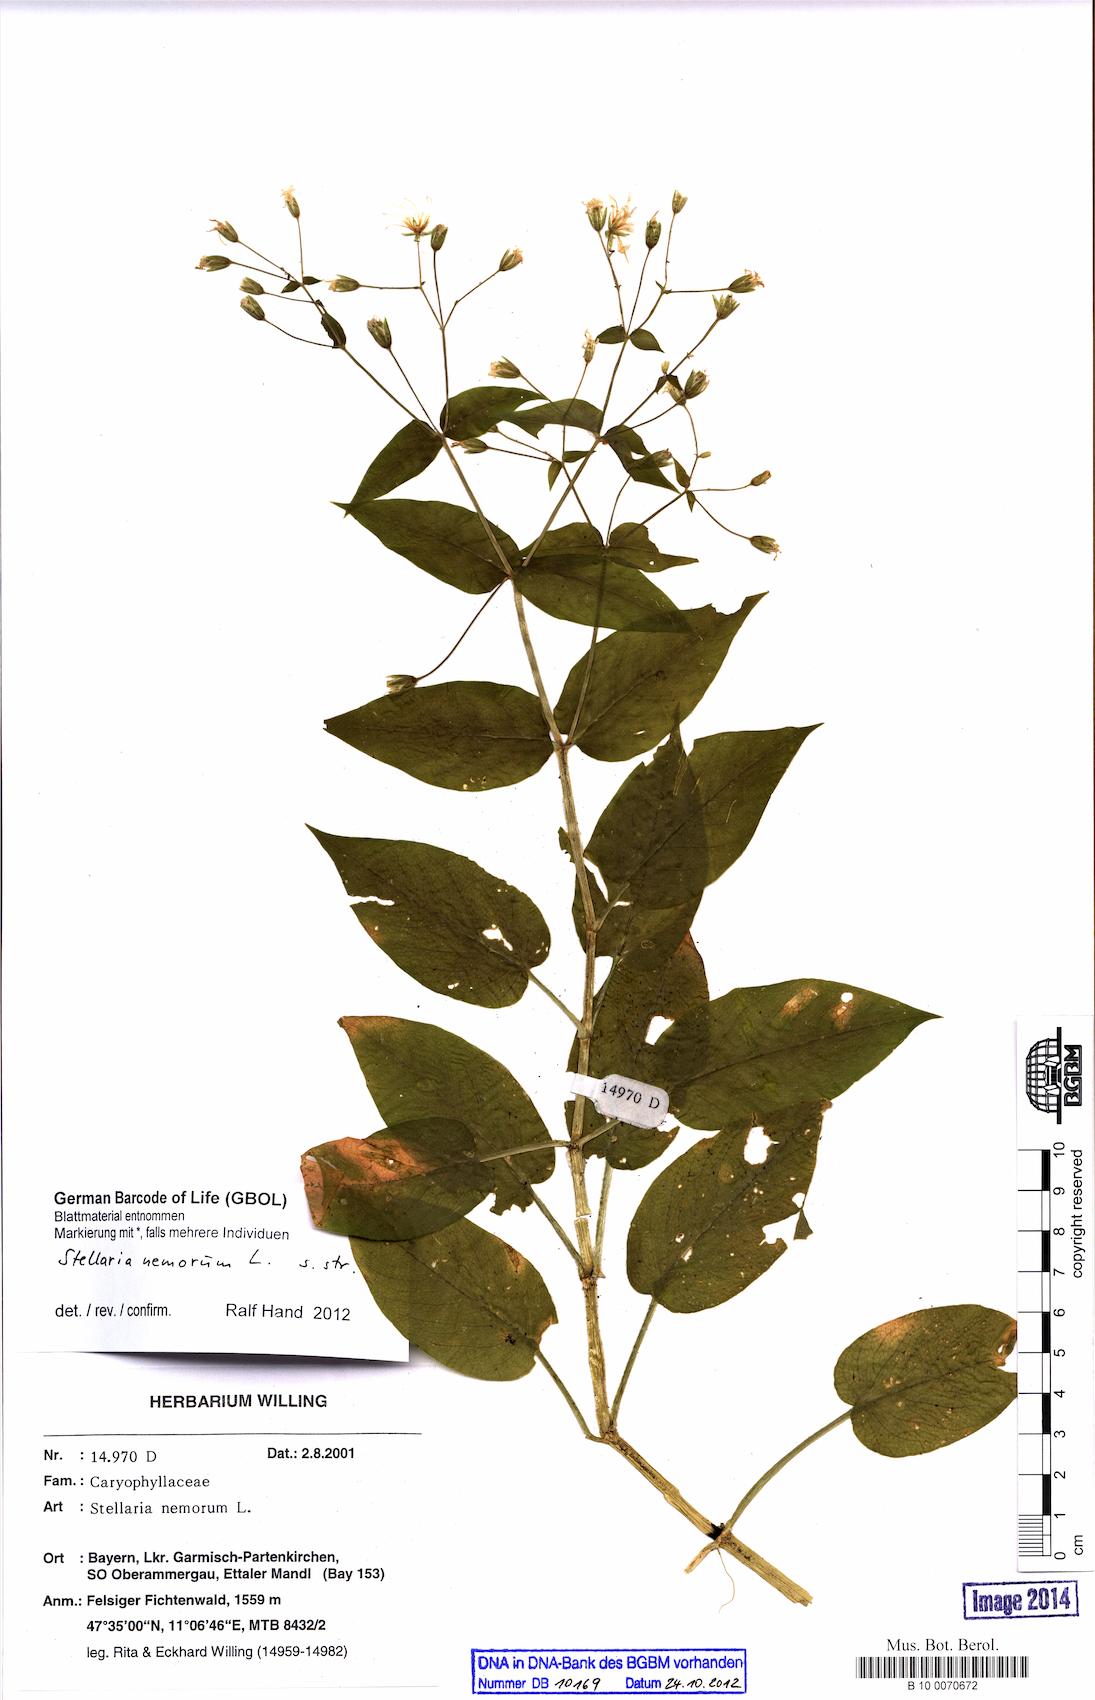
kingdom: Plantae
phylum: Tracheophyta
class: Magnoliopsida
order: Caryophyllales
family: Caryophyllaceae
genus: Stellaria
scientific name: Stellaria nemorum
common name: Wood stitchwort
